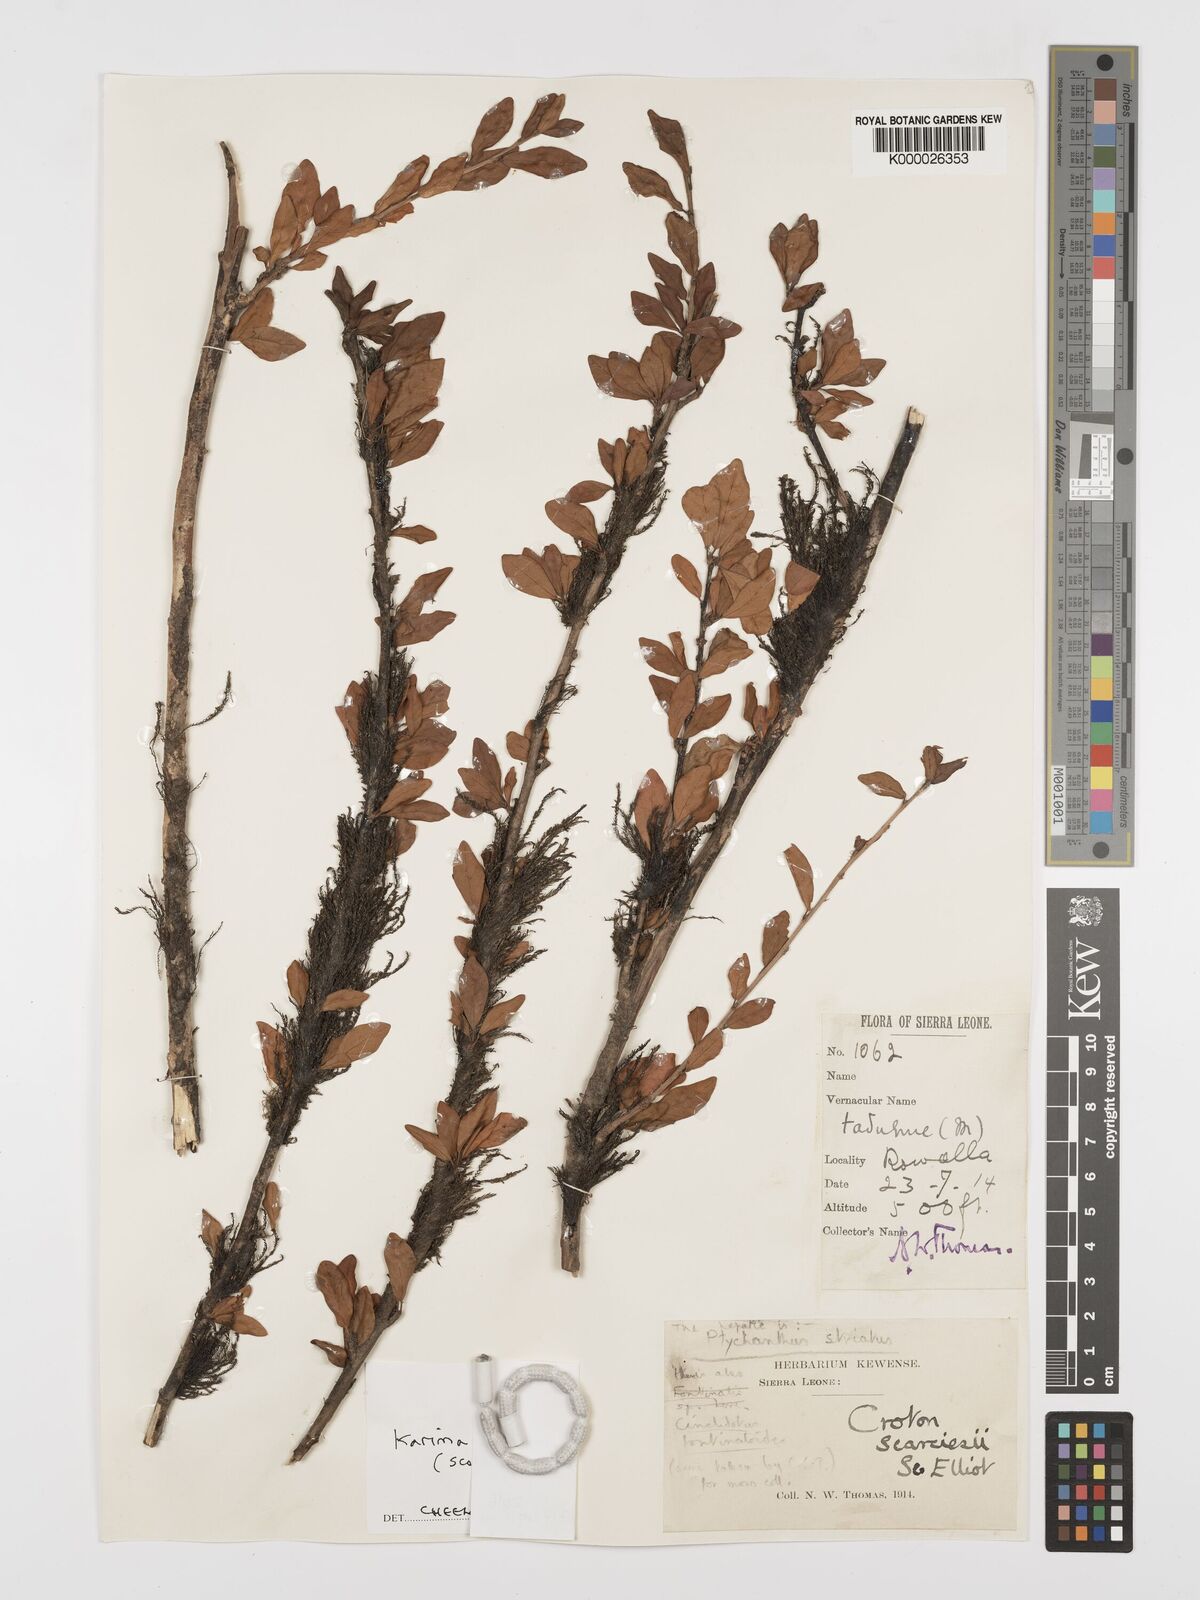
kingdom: Plantae
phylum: Tracheophyta
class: Magnoliopsida
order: Gentianales
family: Rubiaceae
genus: Argostemma
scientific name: Argostemma africanum
